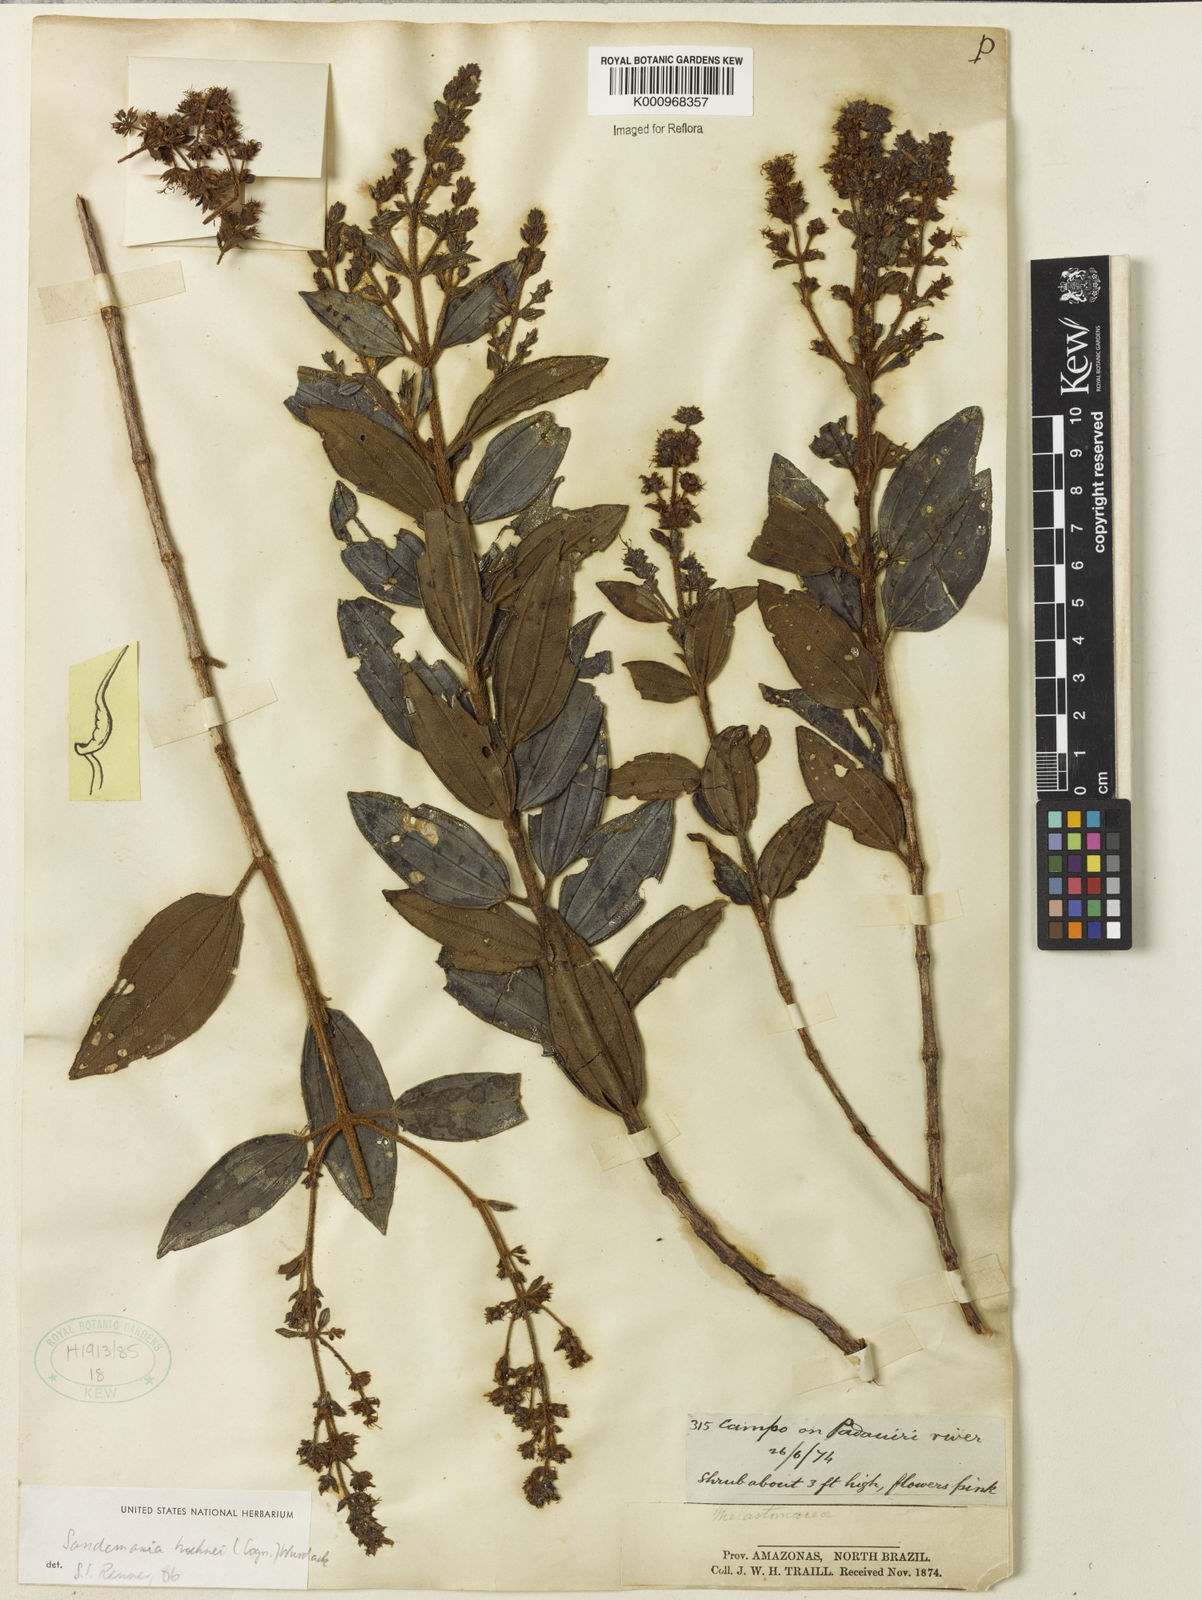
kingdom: Plantae
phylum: Tracheophyta
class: Magnoliopsida
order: Myrtales
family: Melastomataceae
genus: Sandemania
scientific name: Sandemania hoehnei
